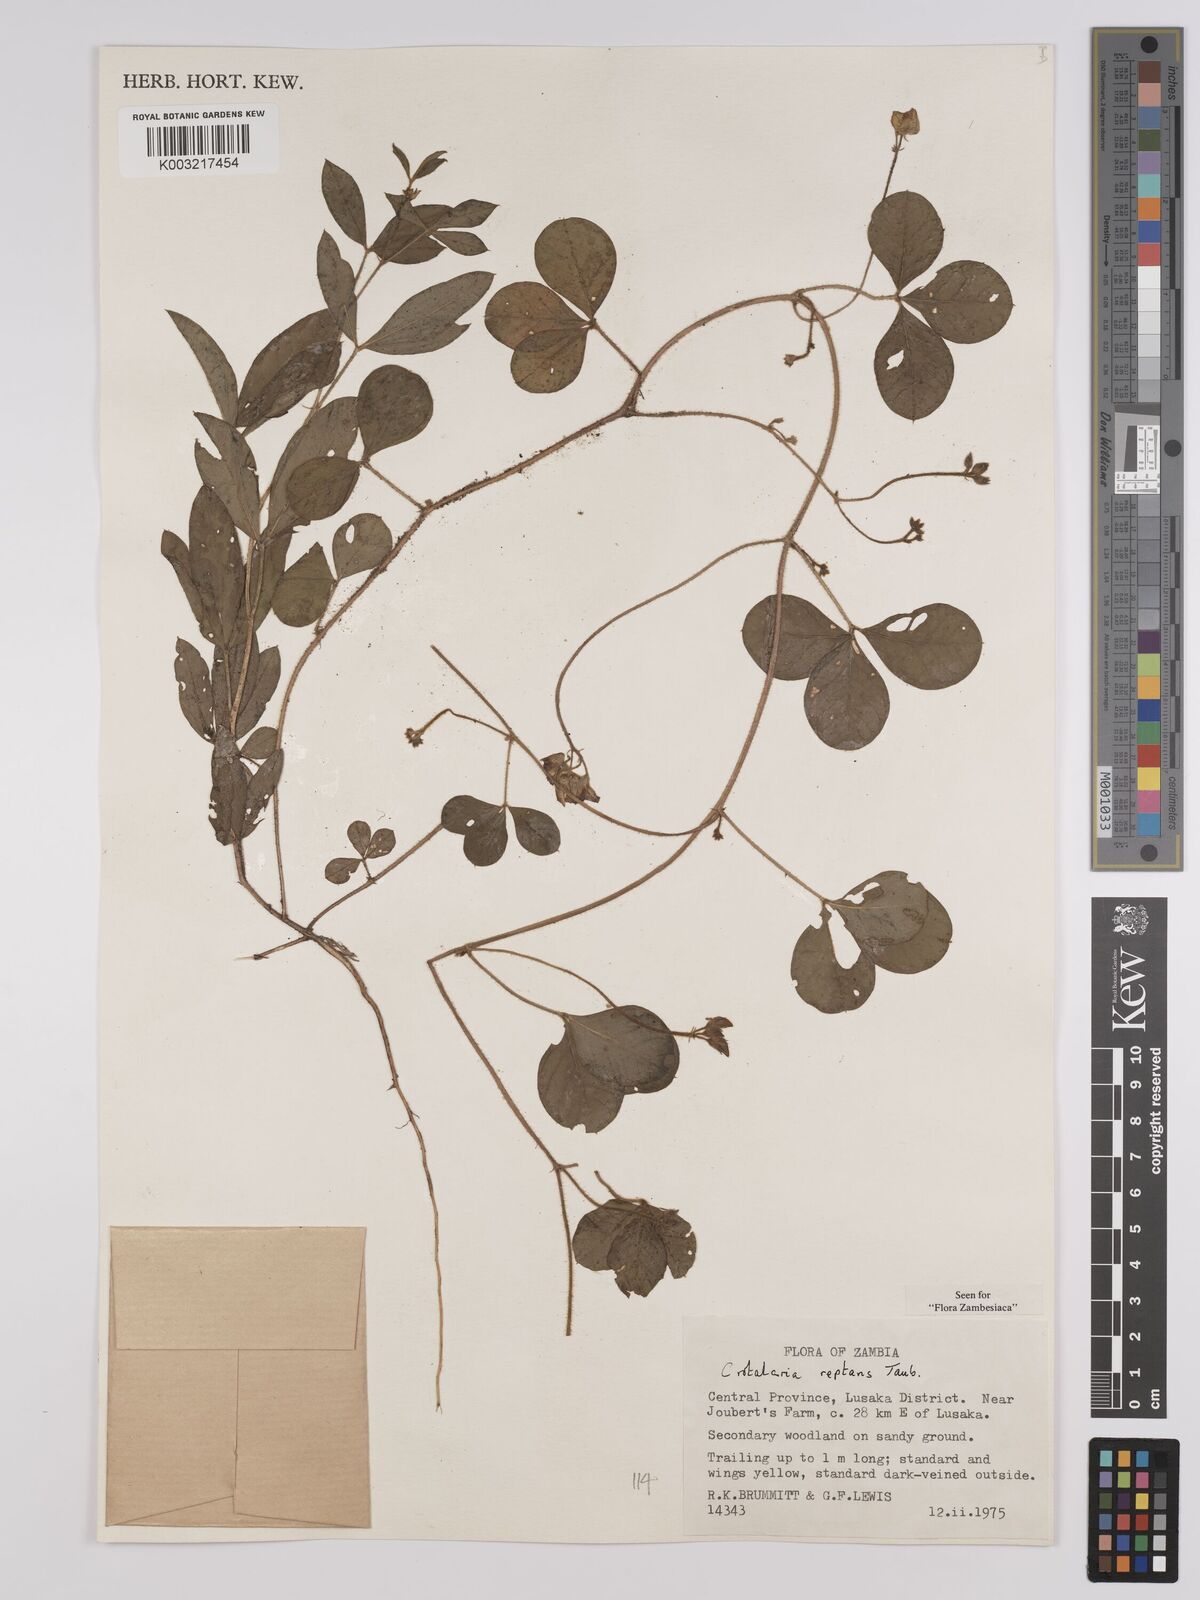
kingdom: Plantae
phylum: Tracheophyta
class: Magnoliopsida
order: Fabales
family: Fabaceae
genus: Crotalaria
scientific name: Crotalaria reptans
